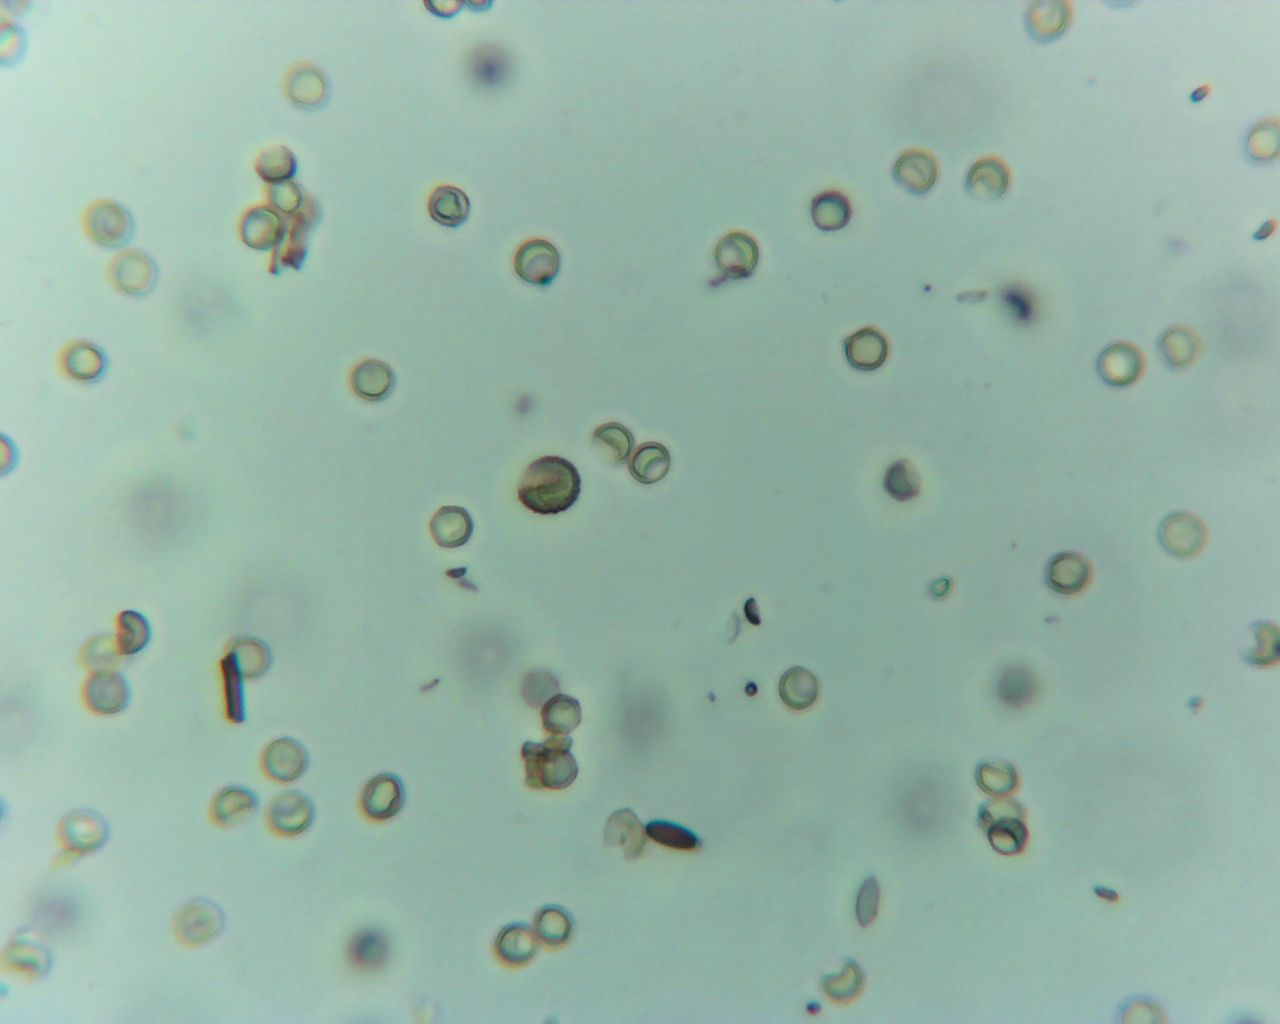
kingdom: Protozoa
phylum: Mycetozoa
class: Myxomycetes
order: Trichiales
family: Arcyriaceae
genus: Arcyria
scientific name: Arcyria denudata
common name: karminrød skålsvøb
